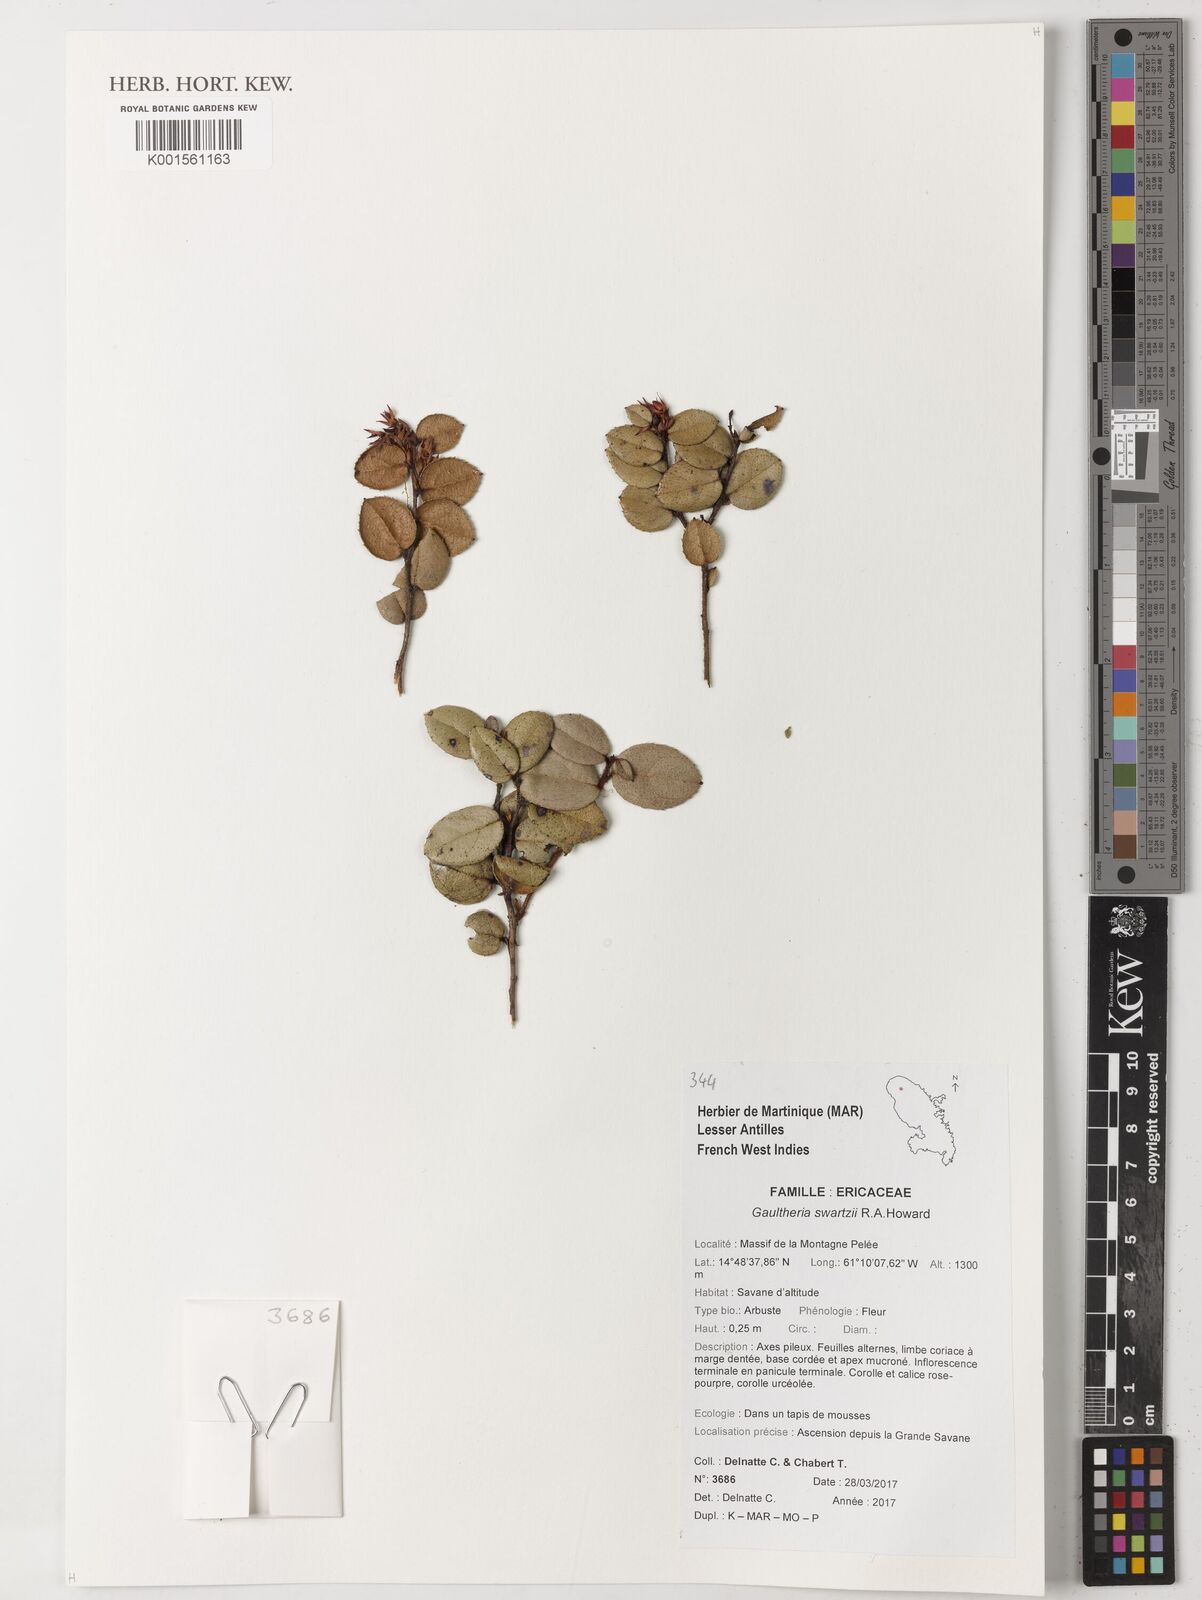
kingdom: Plantae
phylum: Tracheophyta
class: Magnoliopsida
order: Ericales
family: Ericaceae
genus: Gaultheria
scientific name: Gaultheria domingensis
